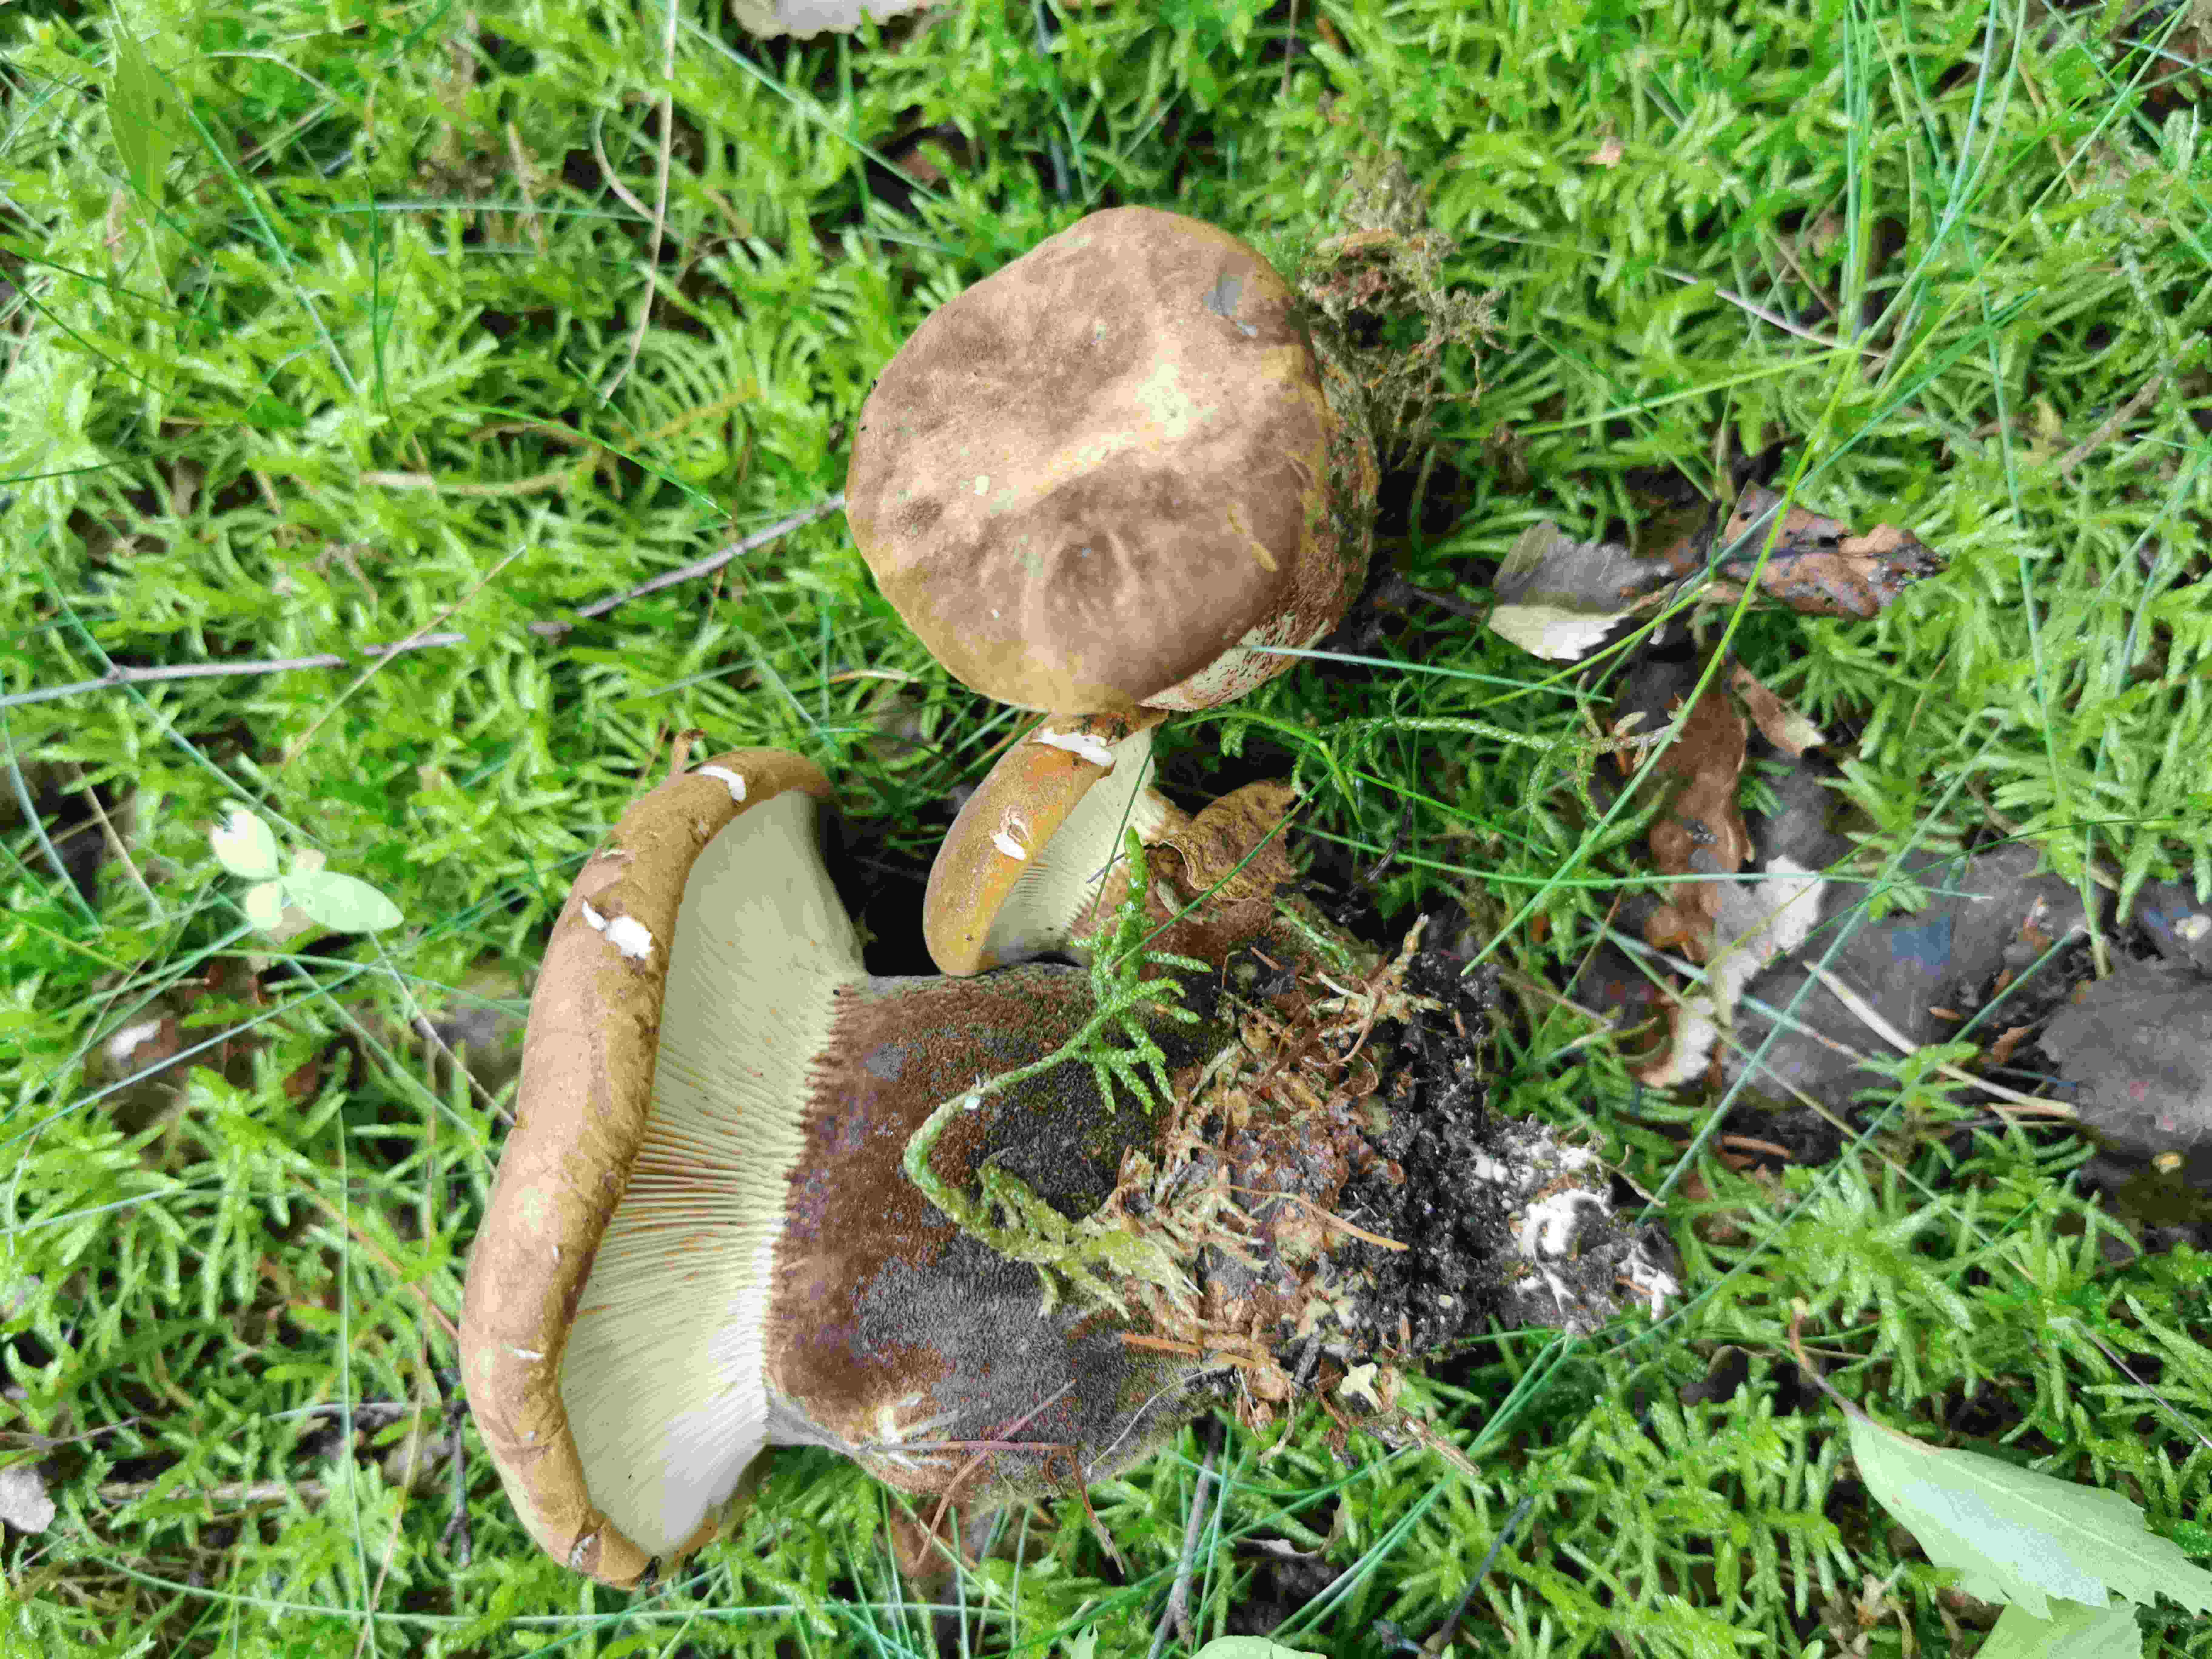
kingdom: Fungi
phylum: Basidiomycota
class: Agaricomycetes
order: Boletales
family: Tapinellaceae
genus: Tapinella
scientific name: Tapinella atrotomentosa
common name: sortfiltet viftesvamp
